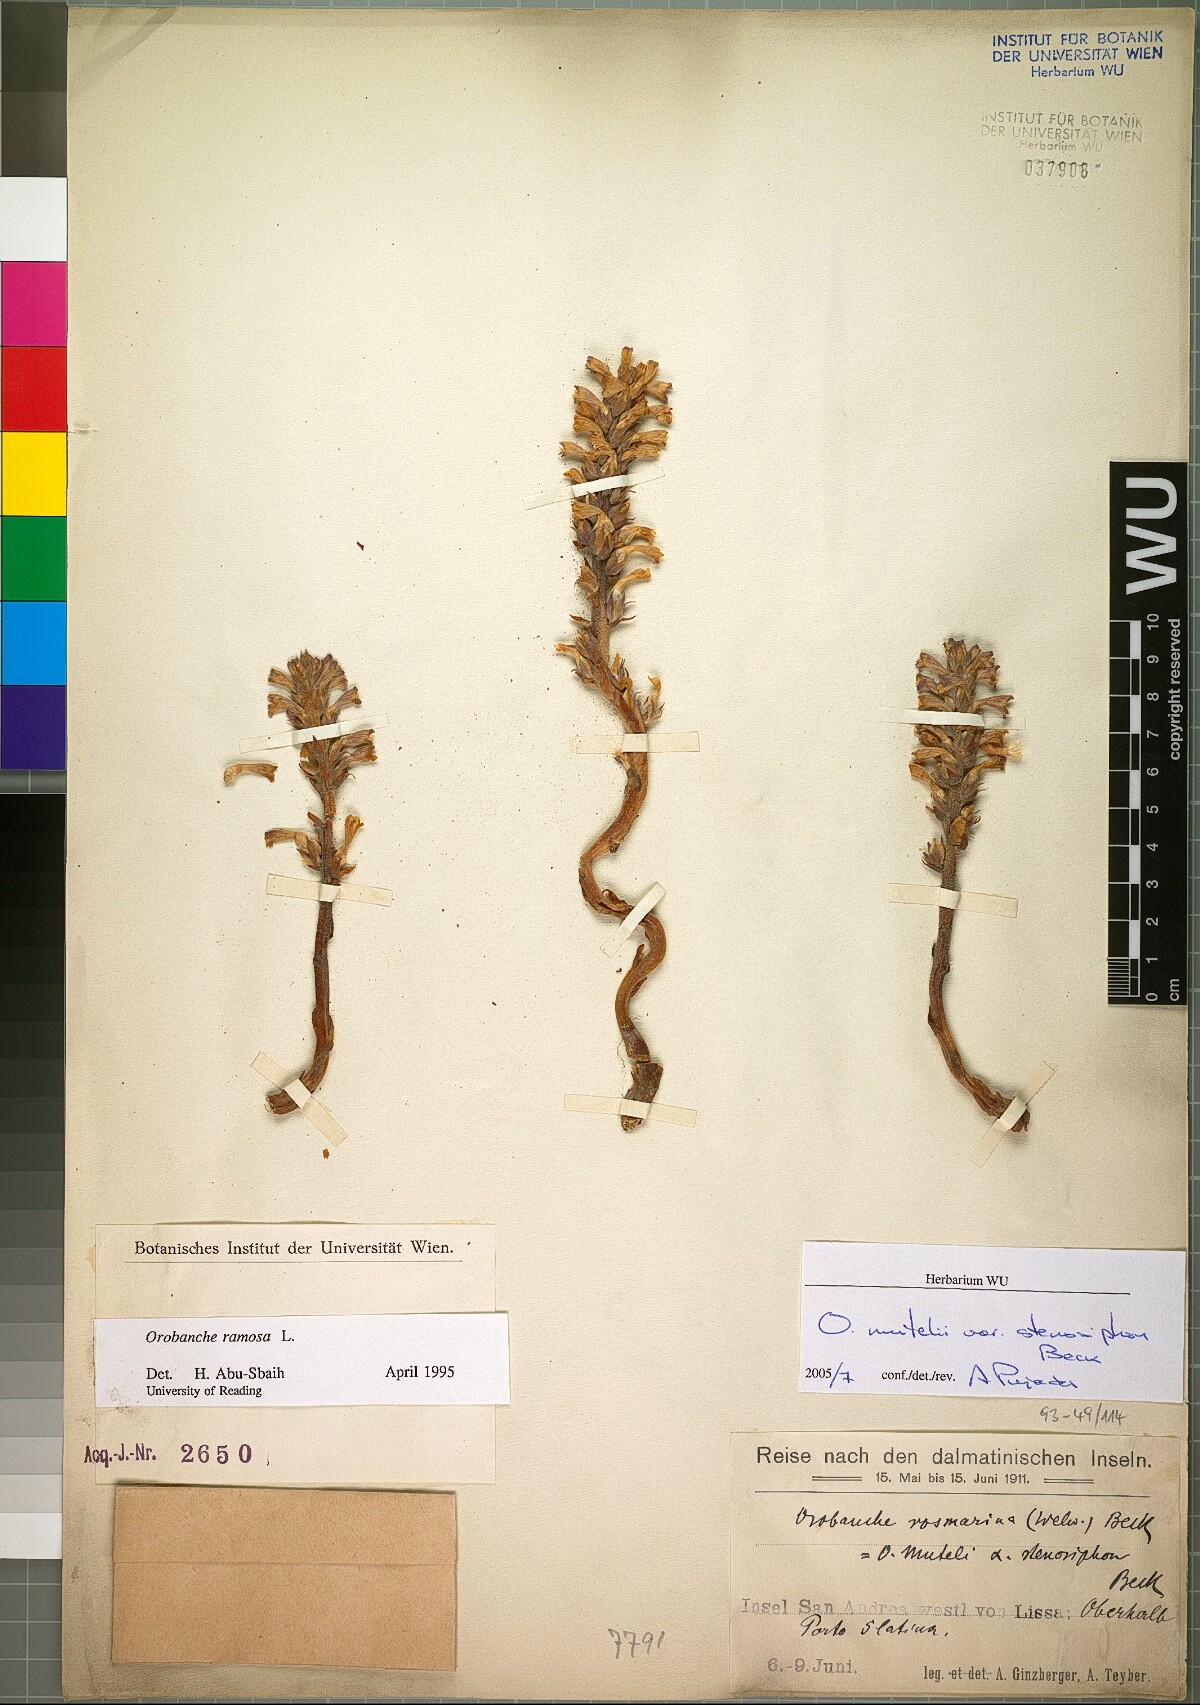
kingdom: Plantae
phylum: Tracheophyta
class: Magnoliopsida
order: Lamiales
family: Orobanchaceae
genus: Phelipanche
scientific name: Phelipanche pseudorosmarina
